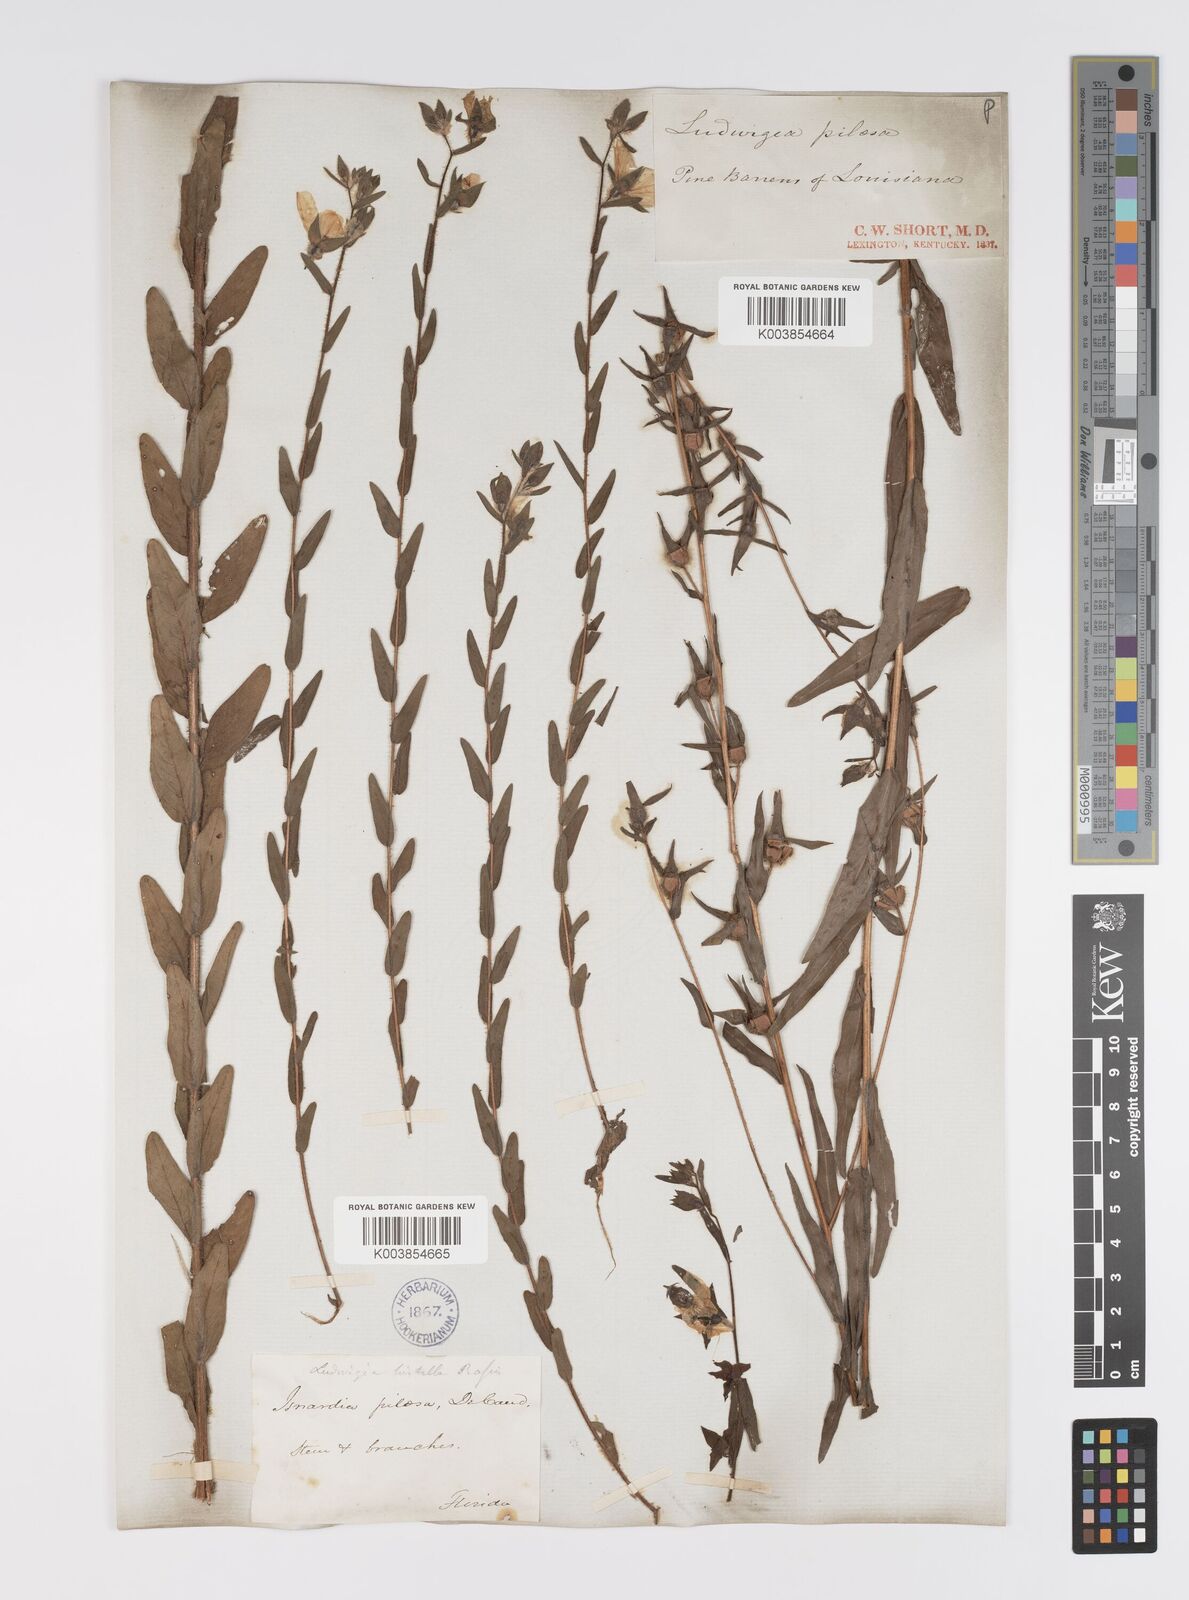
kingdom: Plantae
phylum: Tracheophyta
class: Magnoliopsida
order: Myrtales
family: Onagraceae
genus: Ludwigia
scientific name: Ludwigia hirtella
